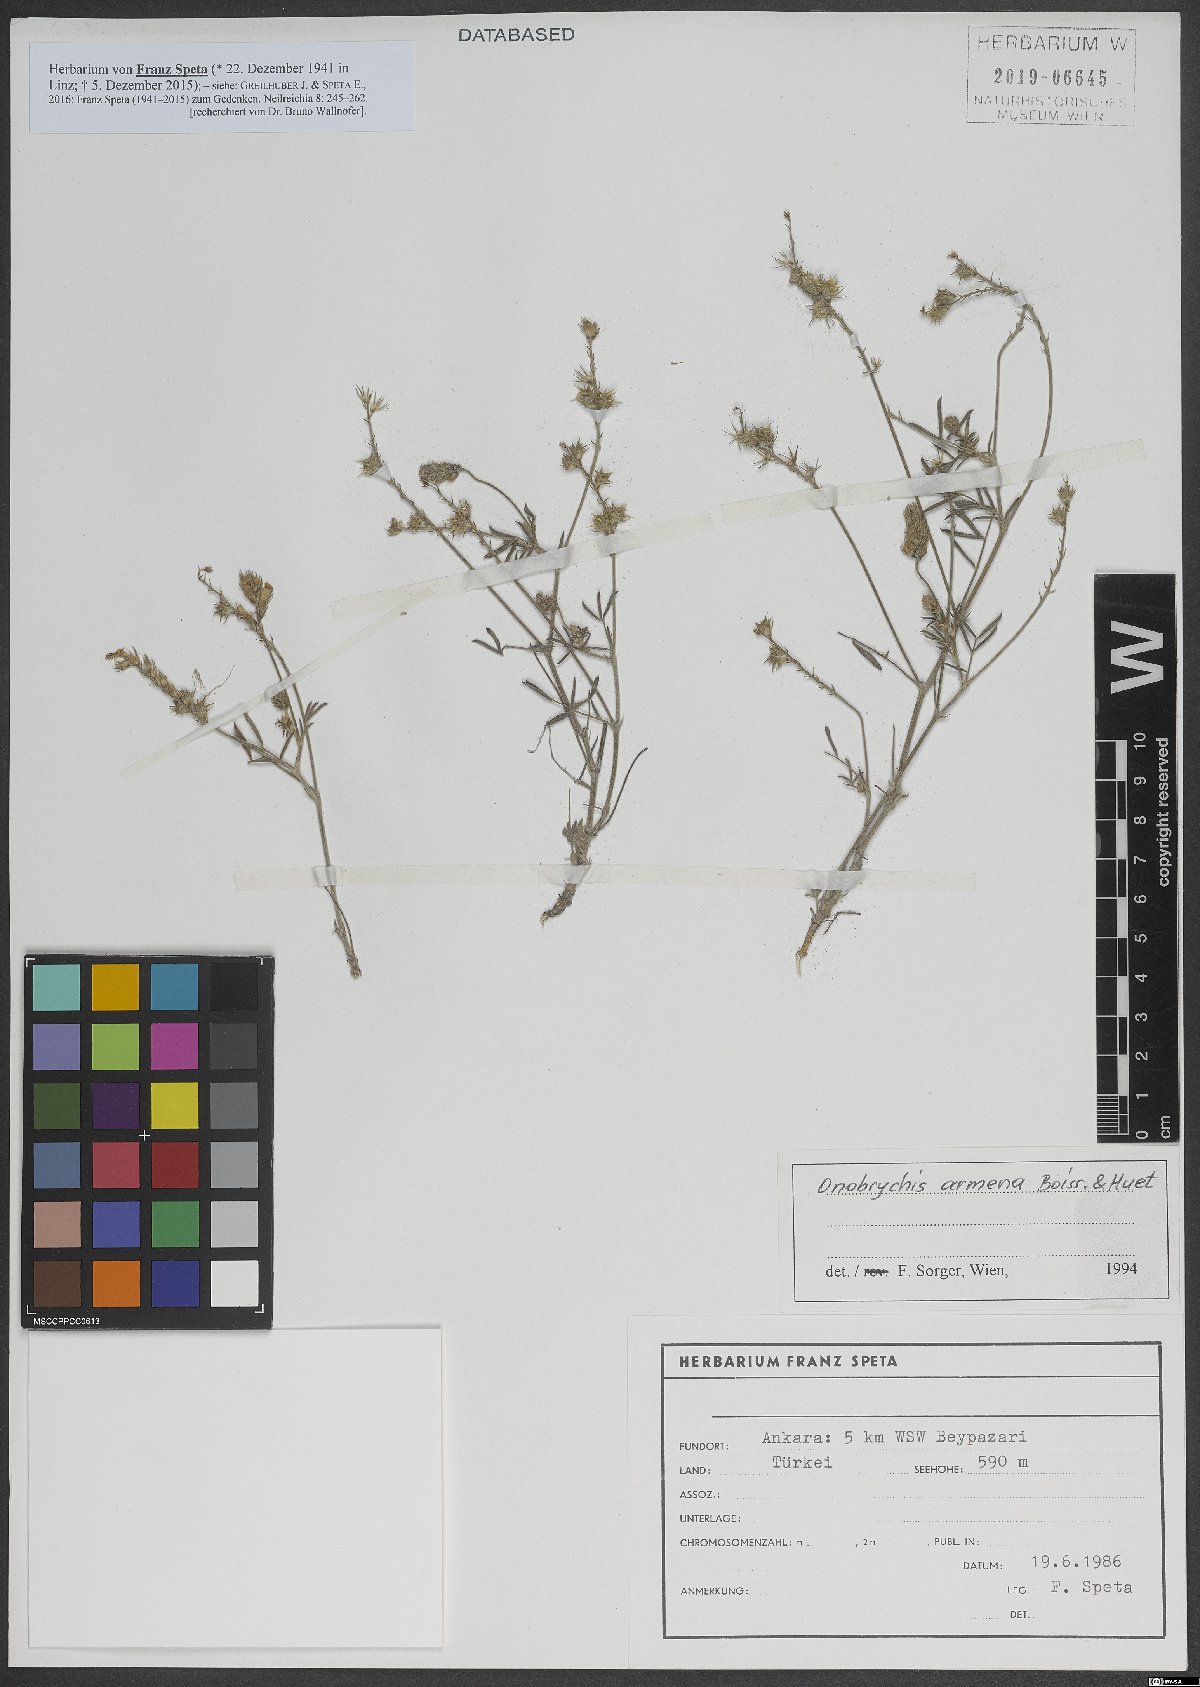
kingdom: Plantae
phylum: Tracheophyta
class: Magnoliopsida
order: Fabales
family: Fabaceae
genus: Onobrychis
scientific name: Onobrychis arenaria
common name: Sand esparcet
